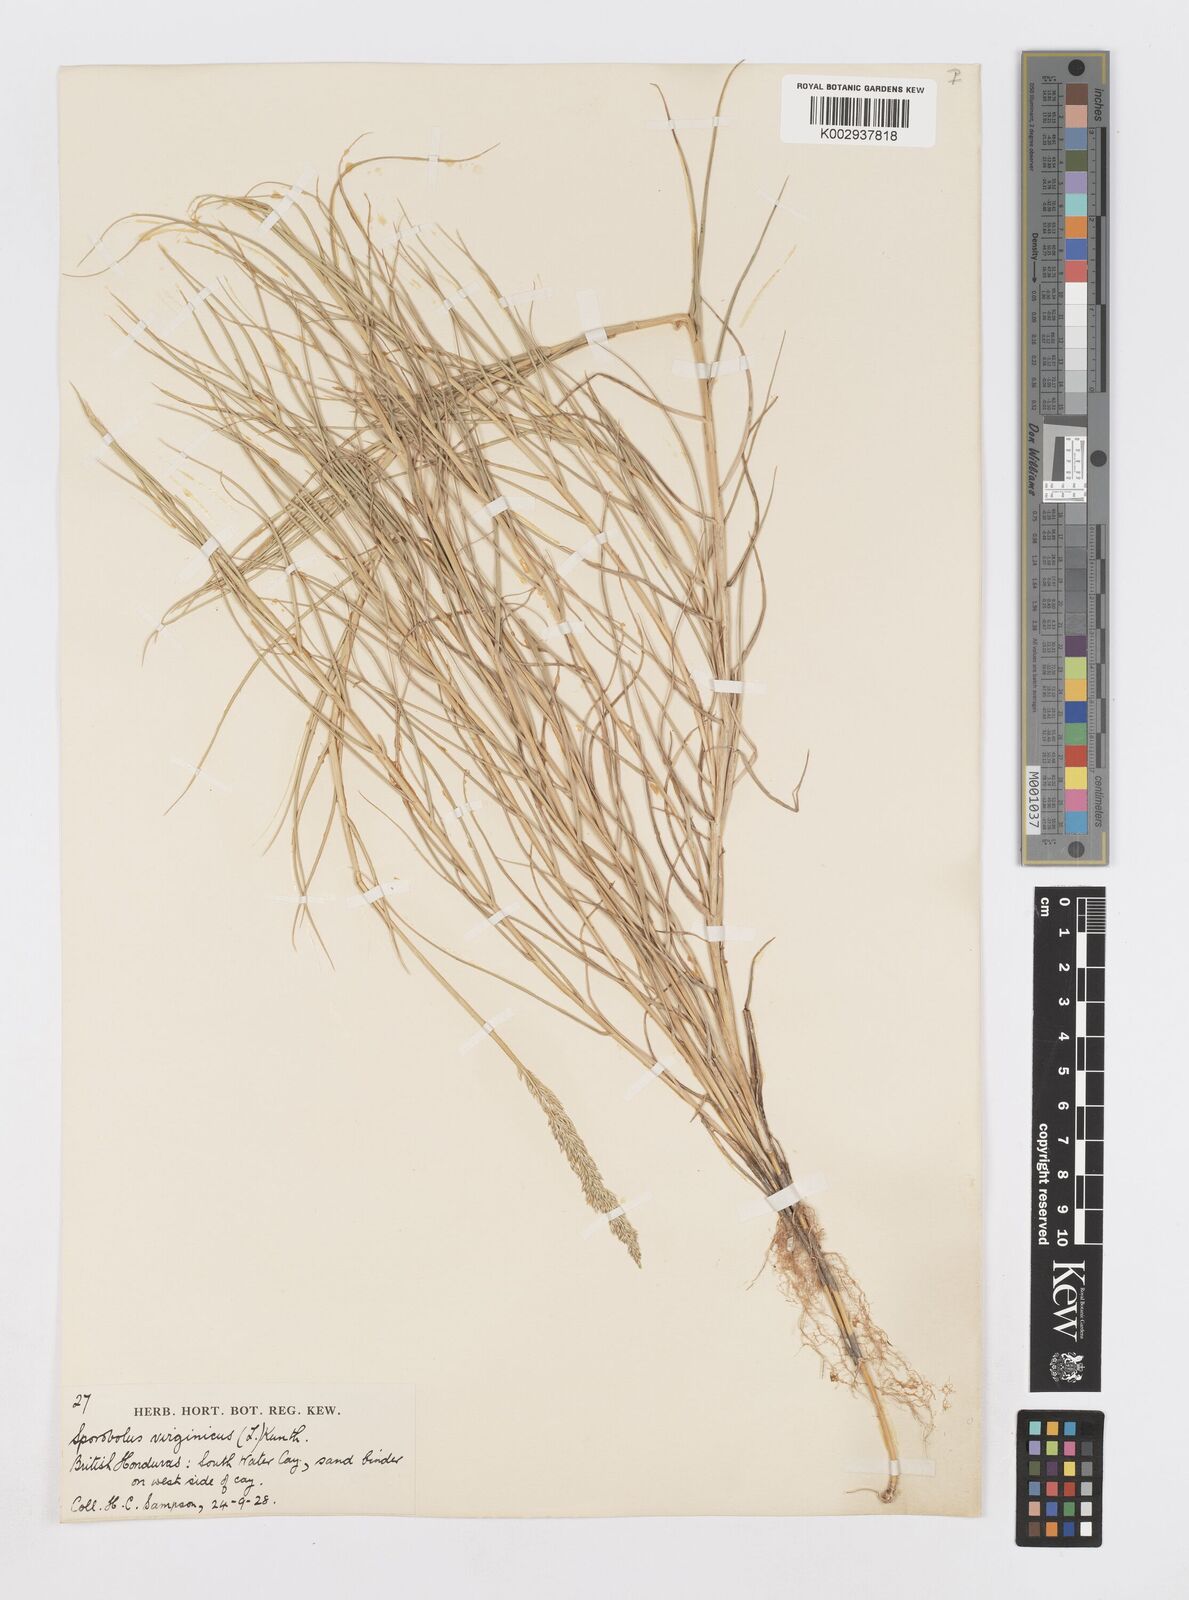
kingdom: Plantae
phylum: Tracheophyta
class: Liliopsida
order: Poales
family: Poaceae
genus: Sporobolus
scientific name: Sporobolus virginicus
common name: Beach dropseed
